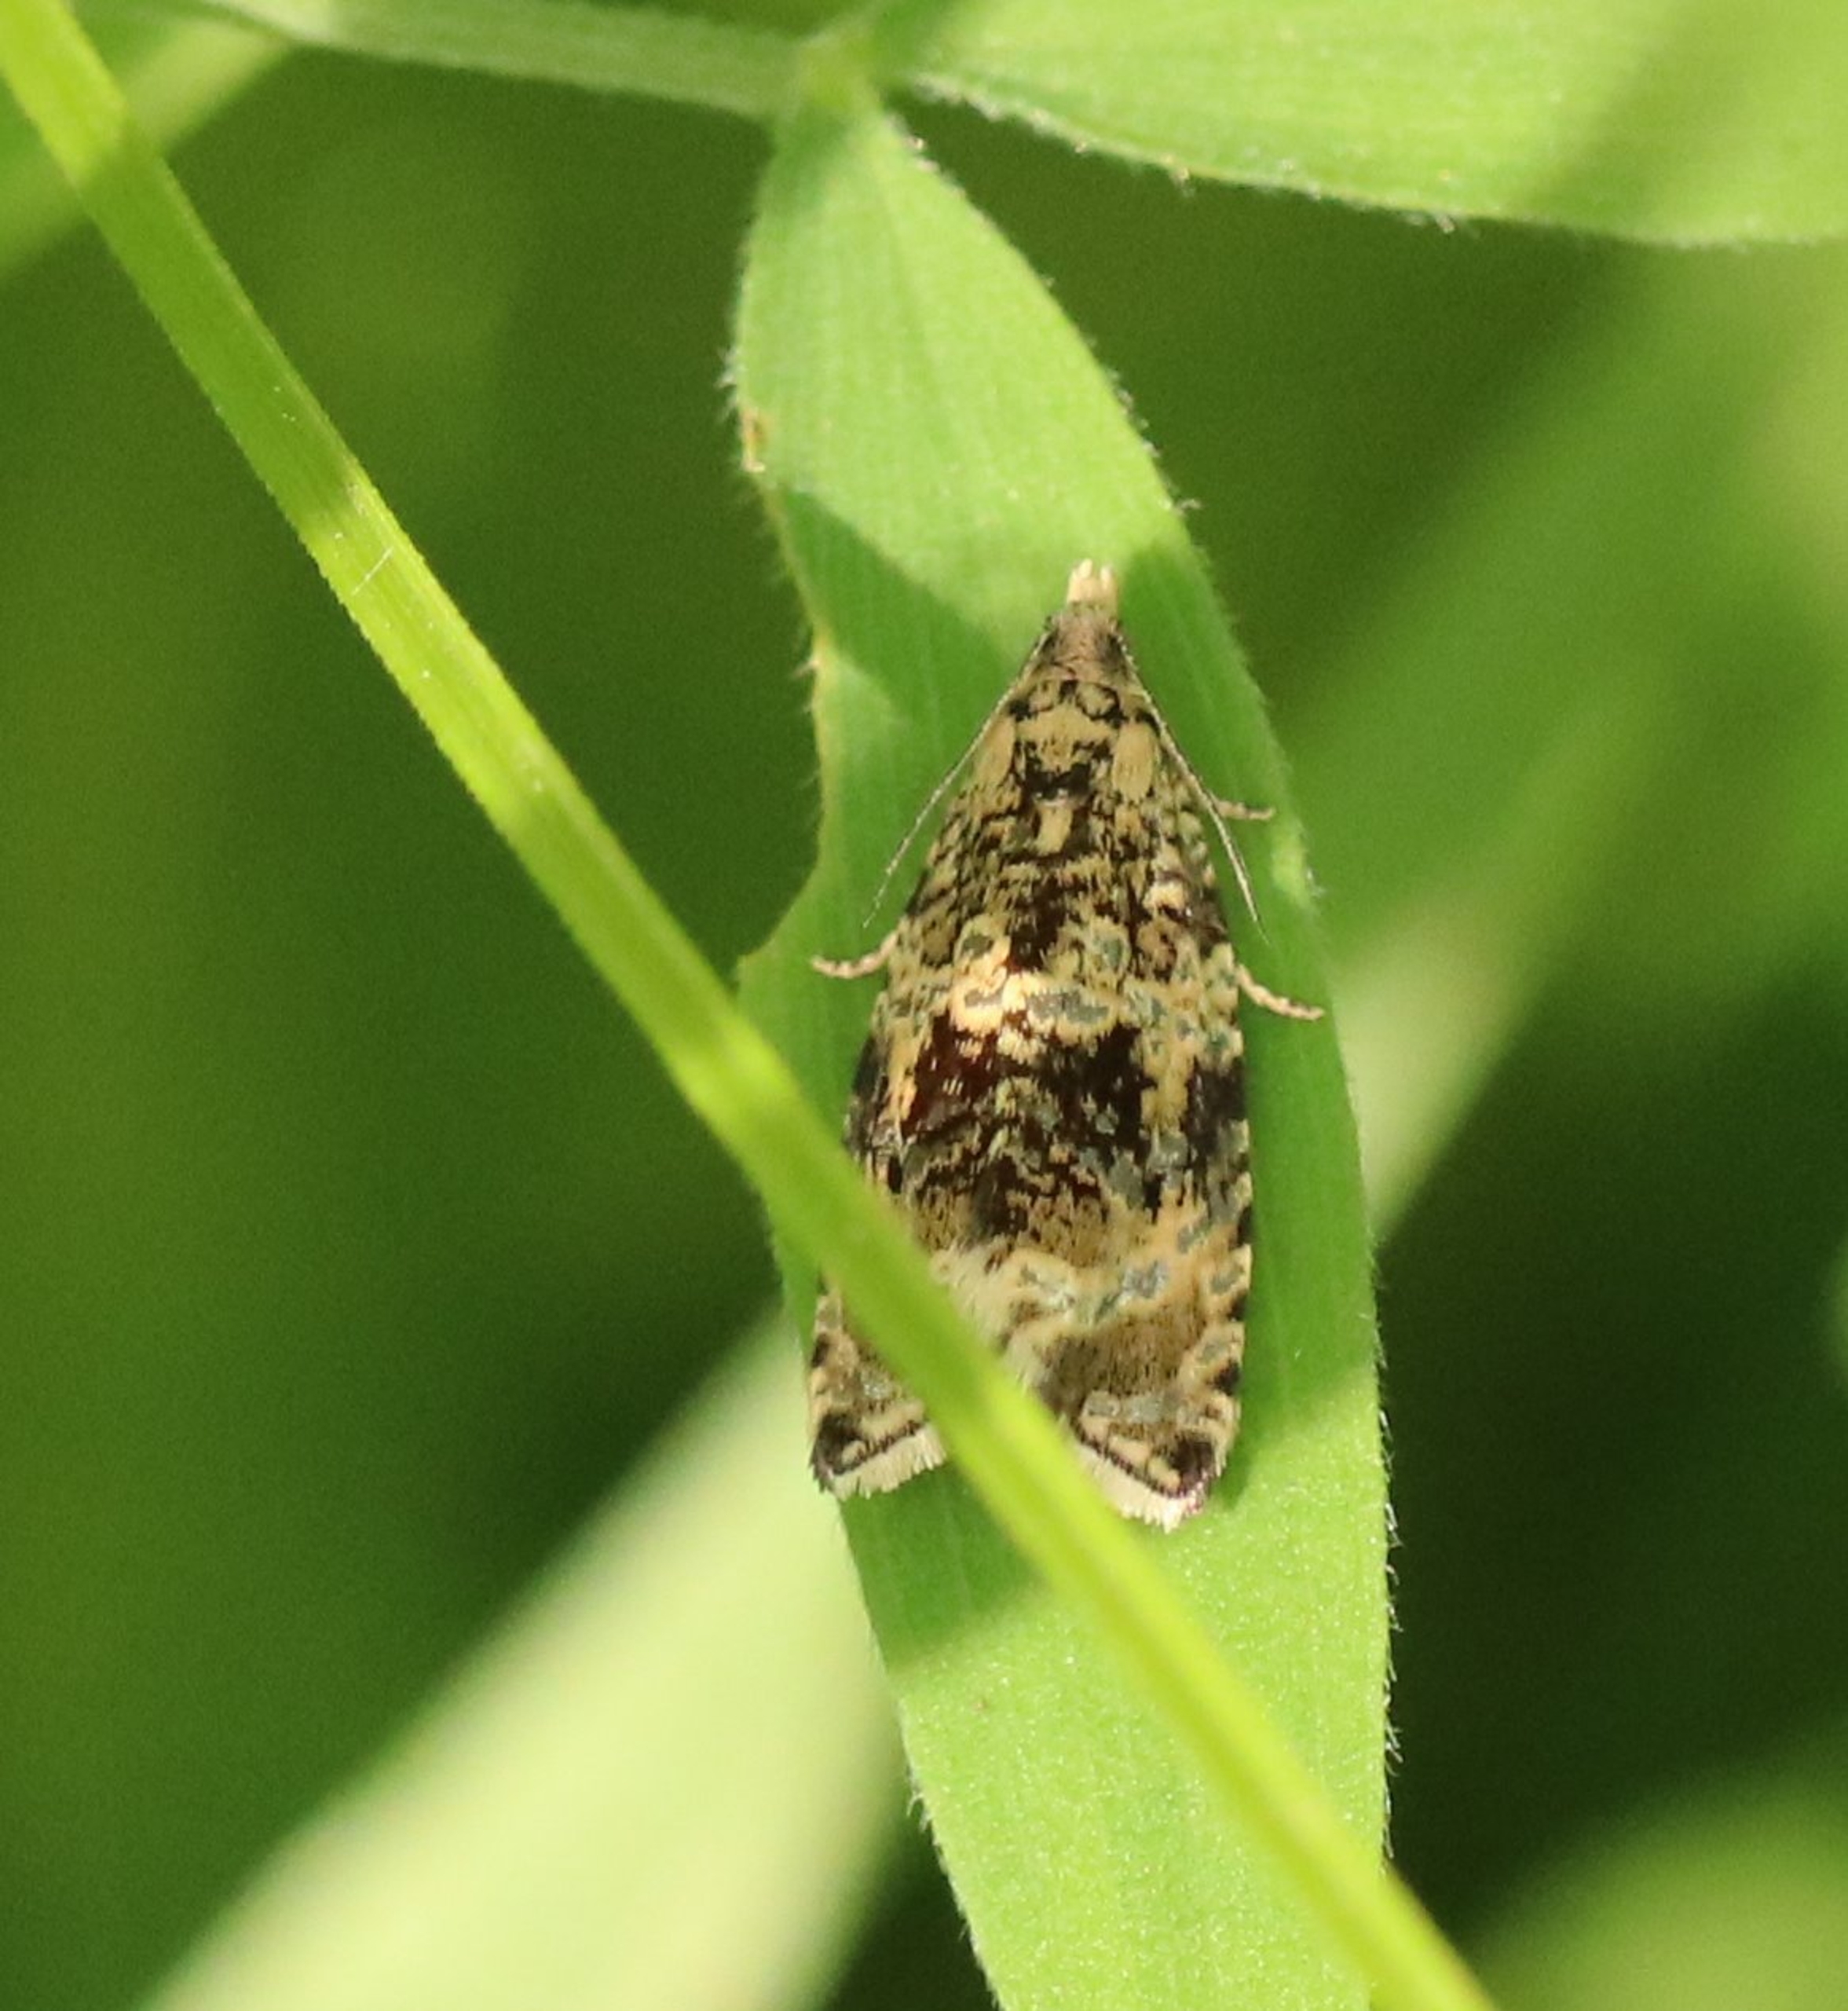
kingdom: Animalia
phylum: Arthropoda
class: Insecta
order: Lepidoptera
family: Tortricidae
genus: Syricoris
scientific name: Syricoris lacunana
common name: Rød jordbærvikler
